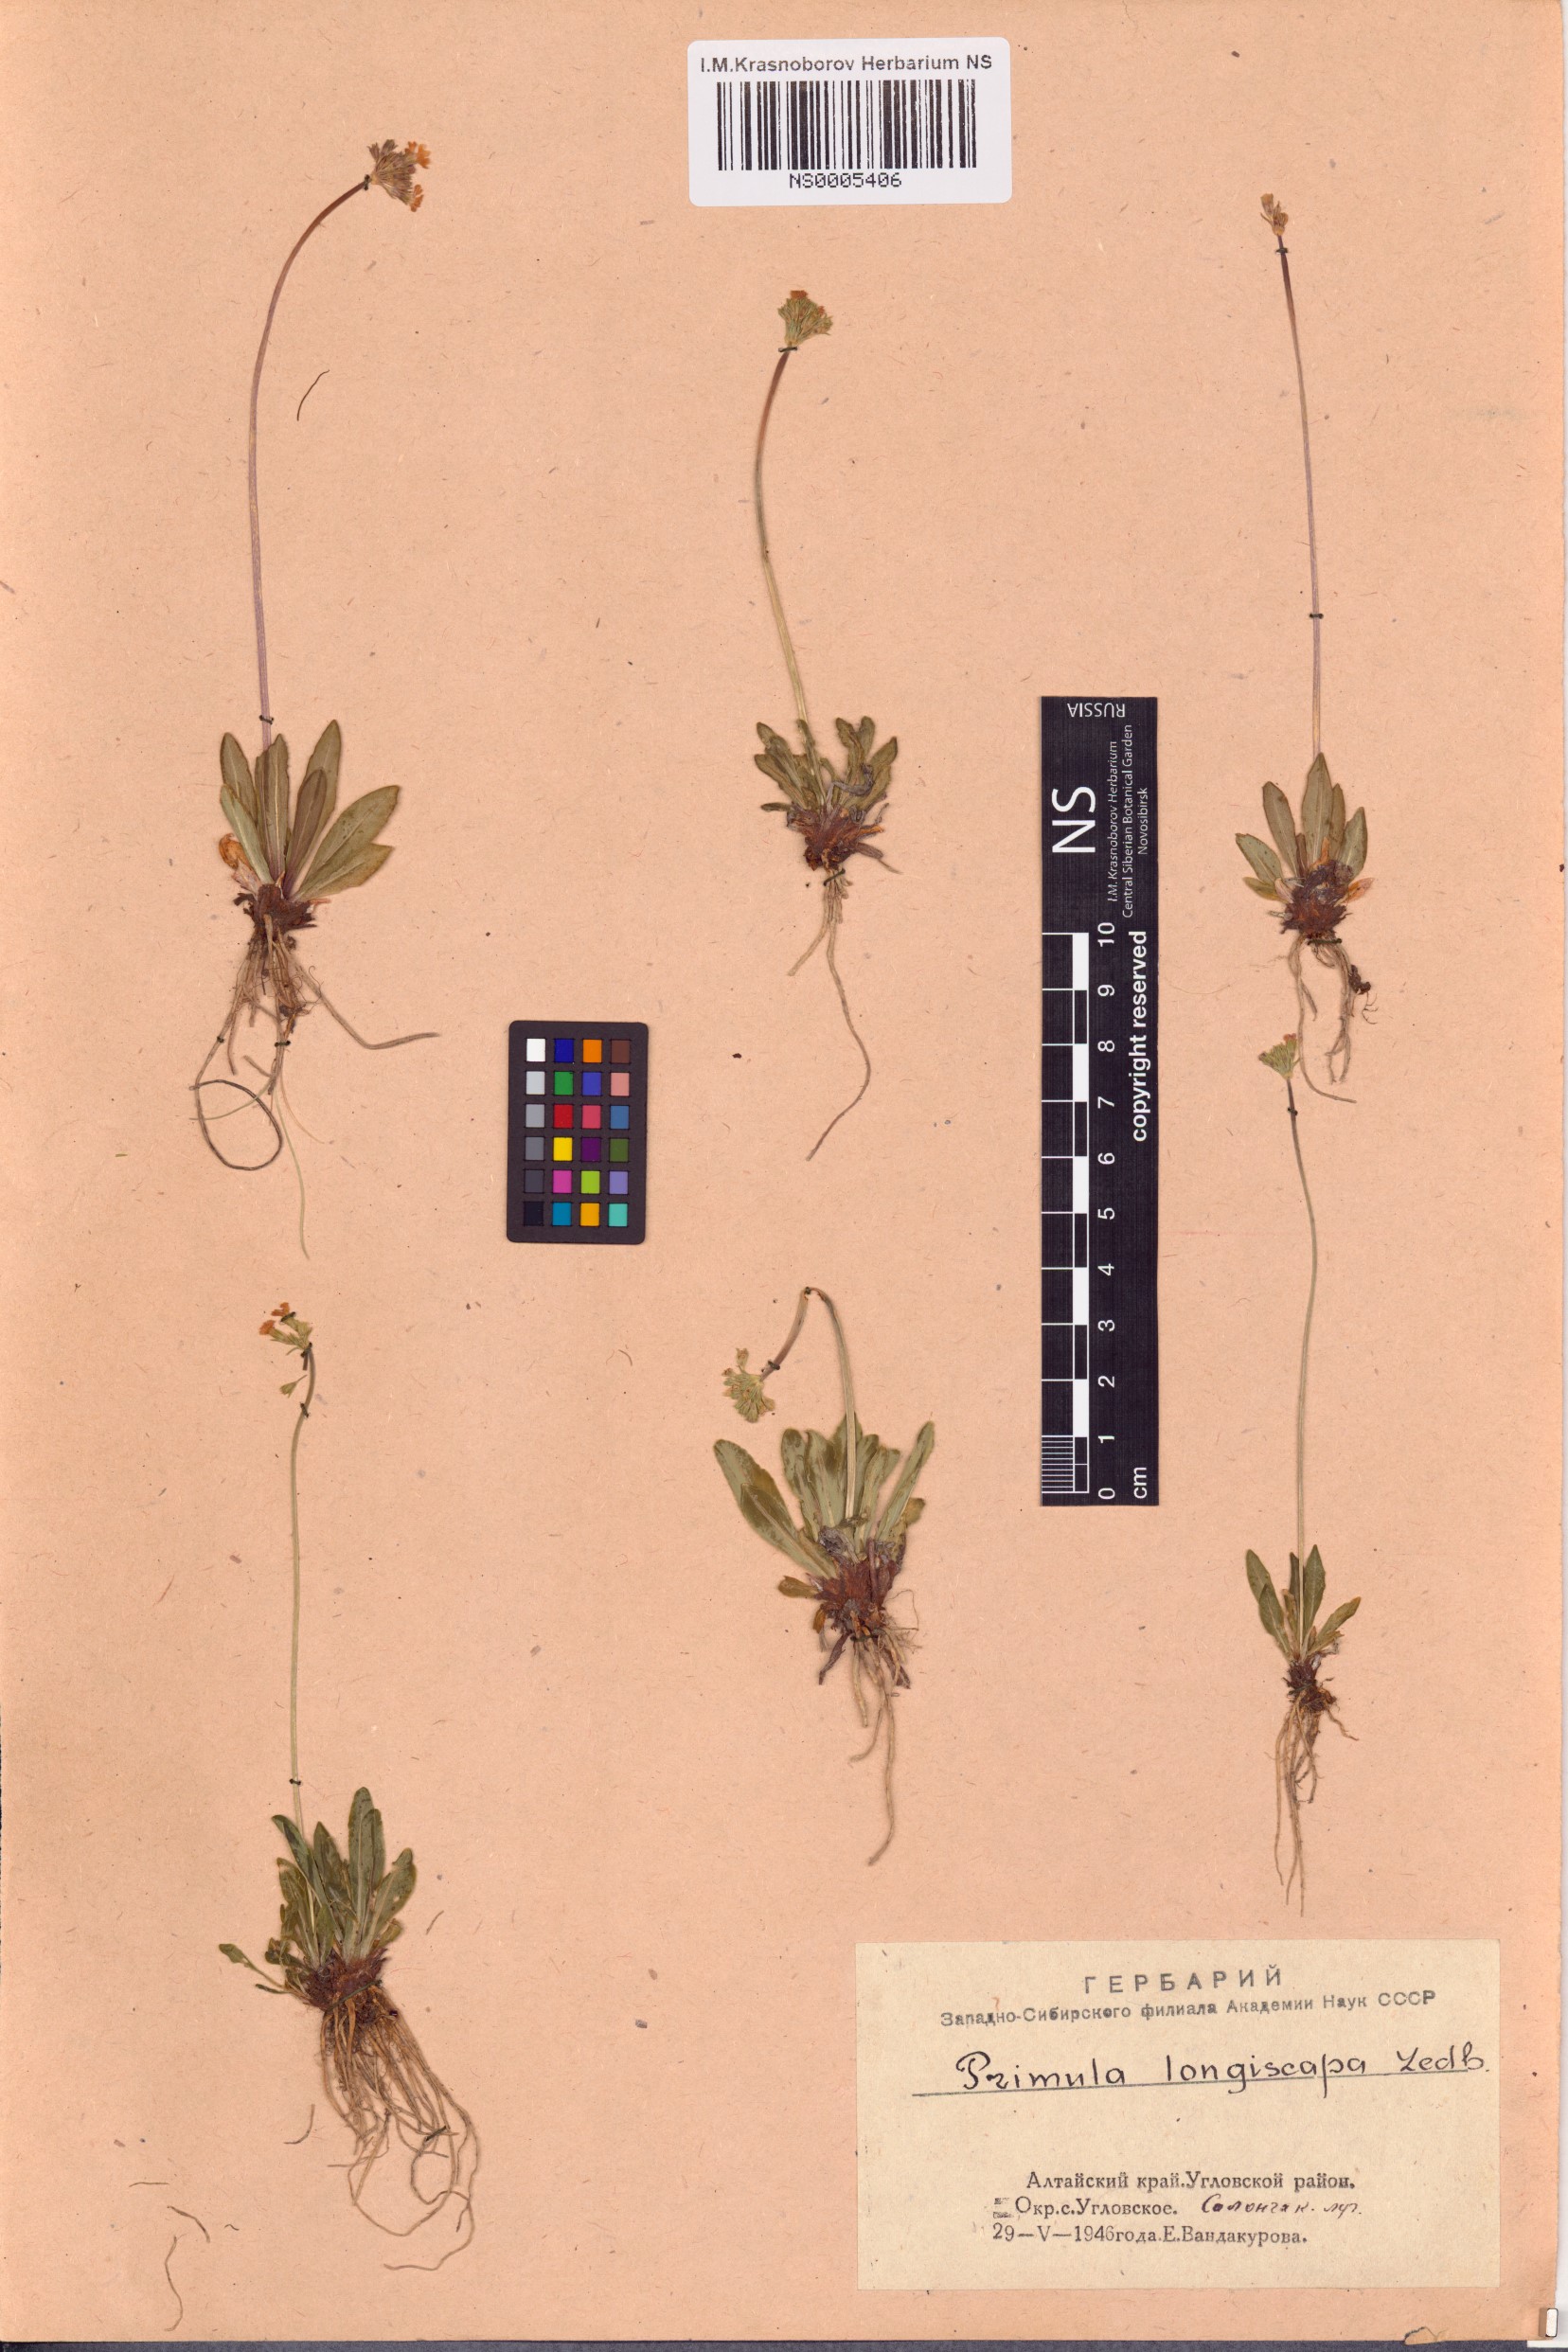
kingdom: Plantae
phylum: Tracheophyta
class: Magnoliopsida
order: Ericales
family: Primulaceae
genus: Primula
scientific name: Primula longiscapa
